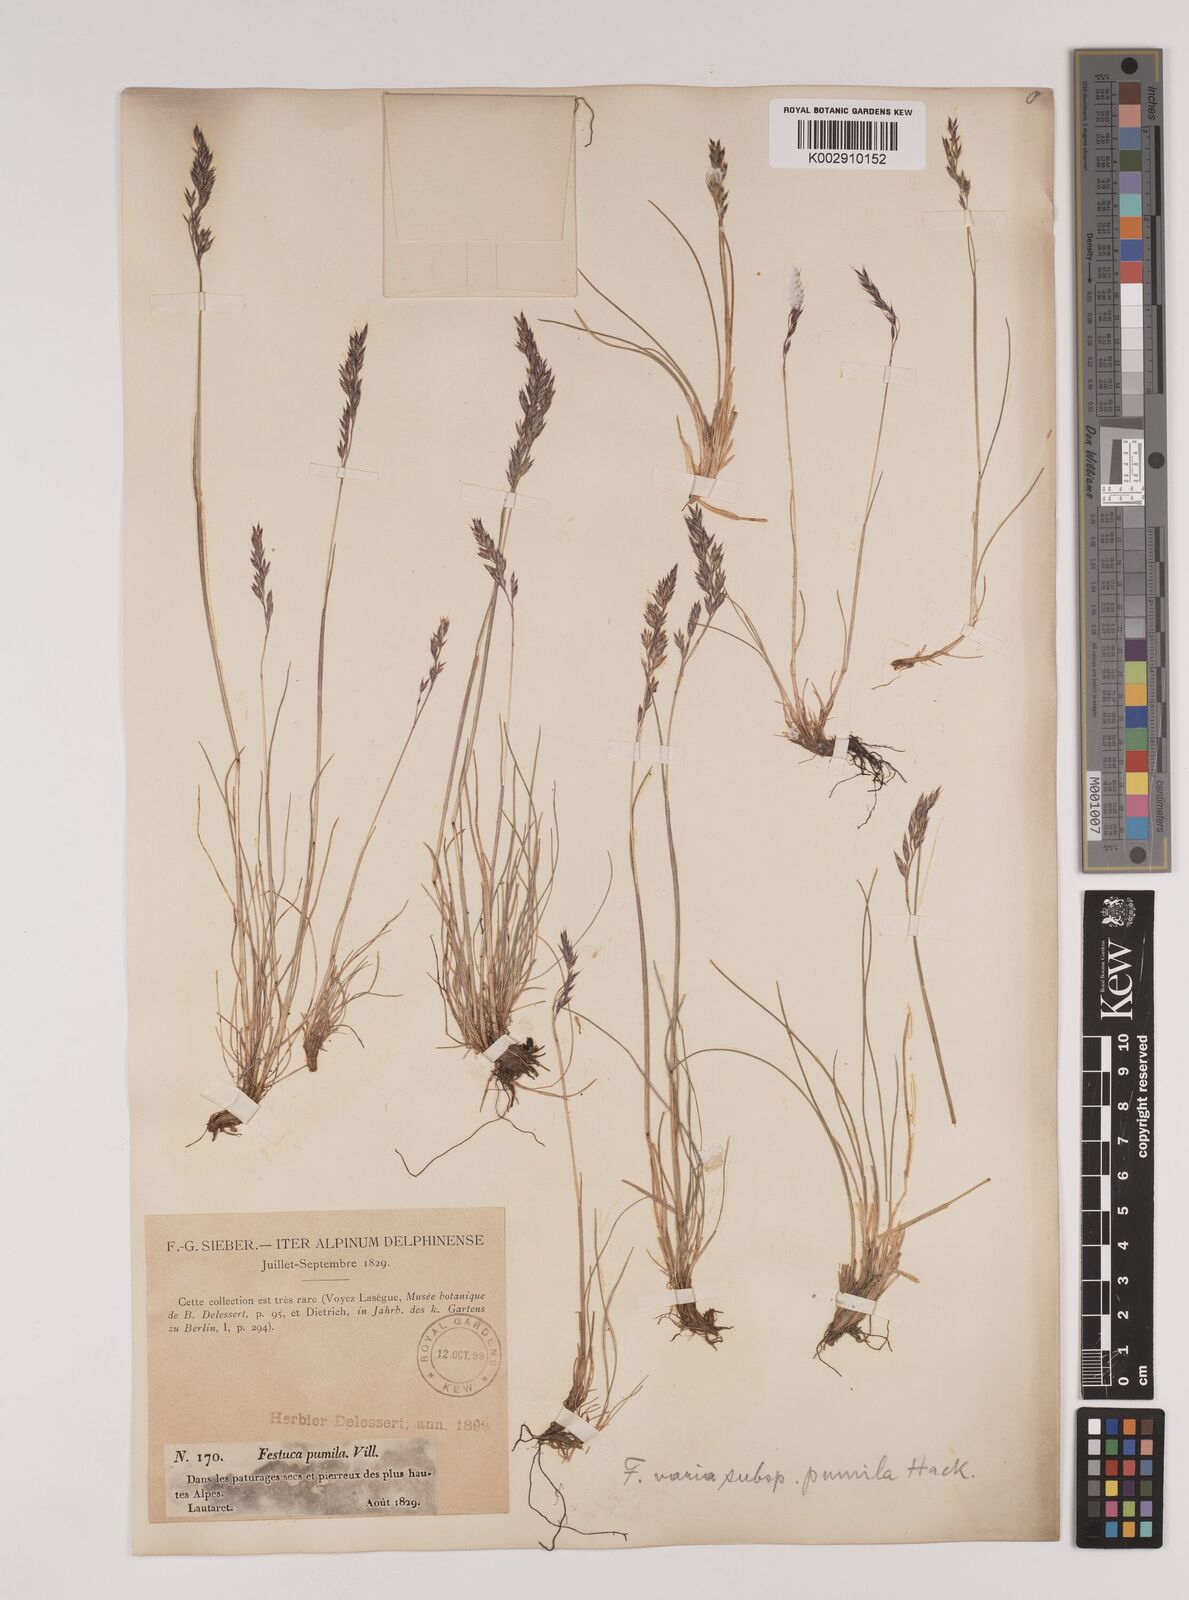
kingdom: Plantae
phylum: Tracheophyta
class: Liliopsida
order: Poales
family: Poaceae
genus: Festuca
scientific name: Festuca
